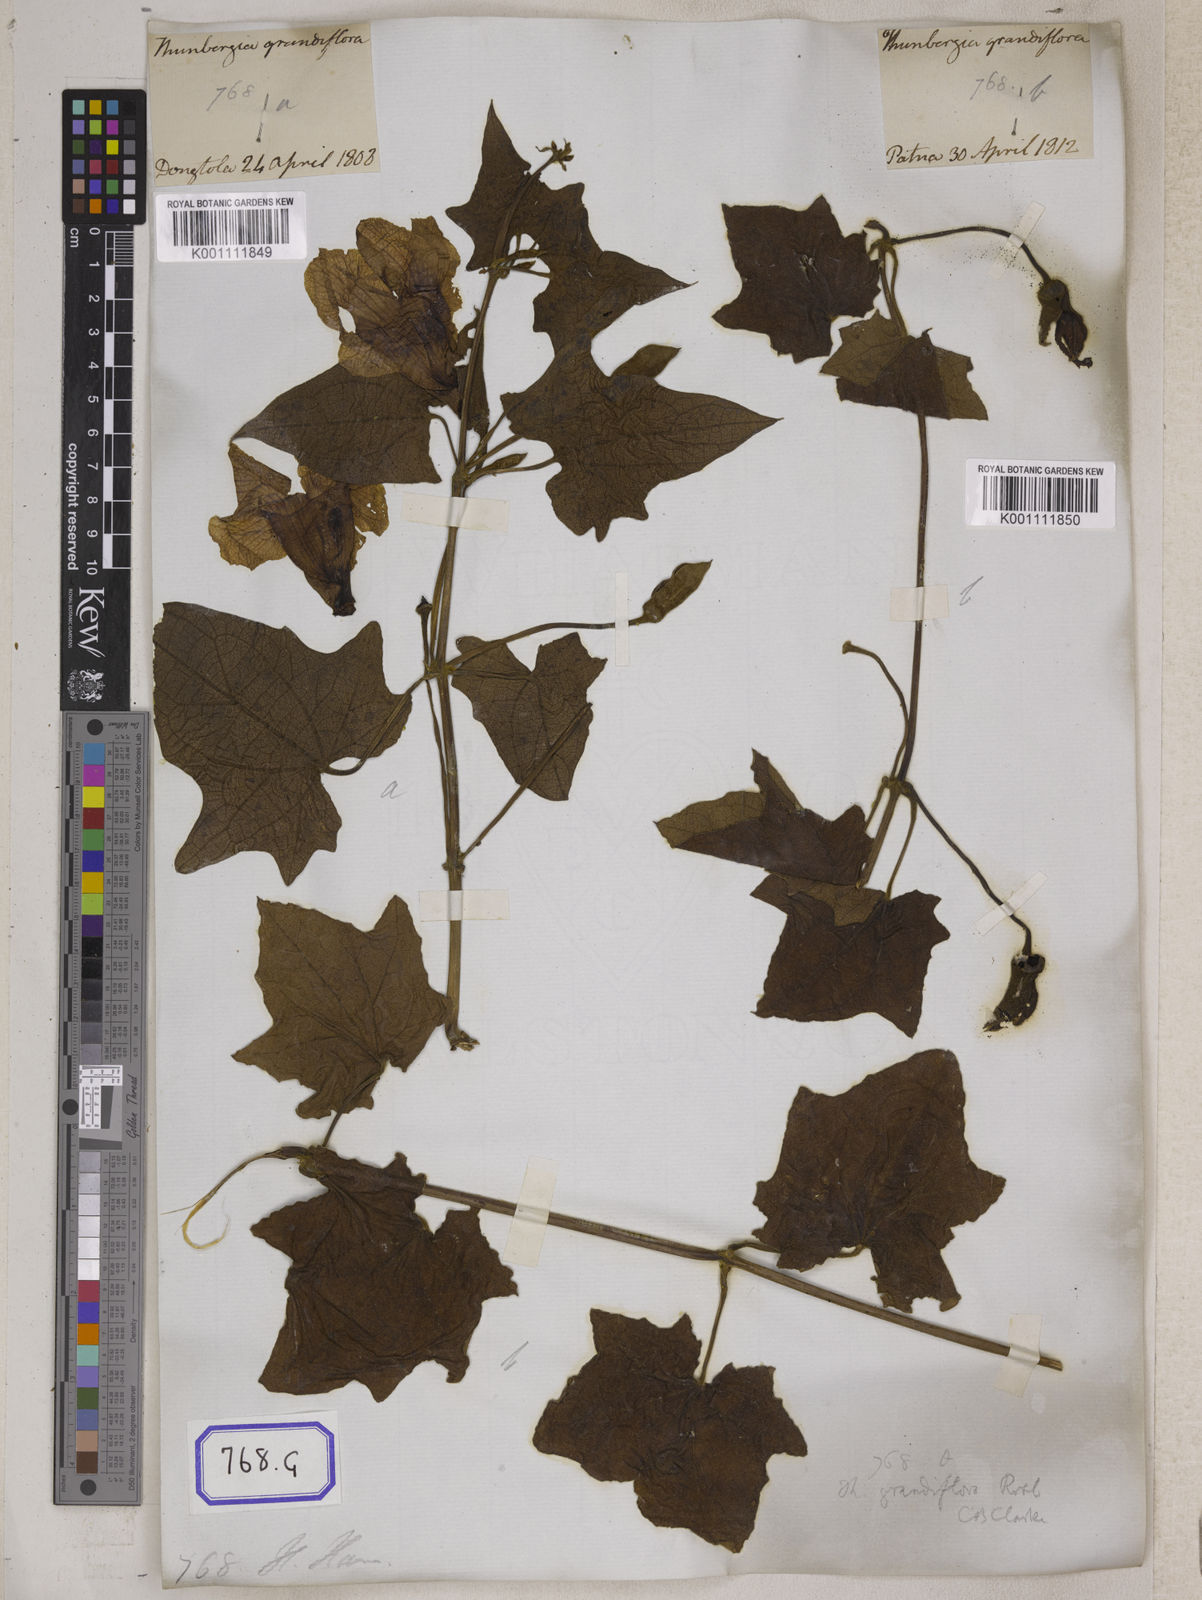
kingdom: Plantae
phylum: Tracheophyta
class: Magnoliopsida
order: Lamiales
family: Acanthaceae
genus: Thunbergia
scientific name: Thunbergia grandiflora
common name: Bengal trumpet
